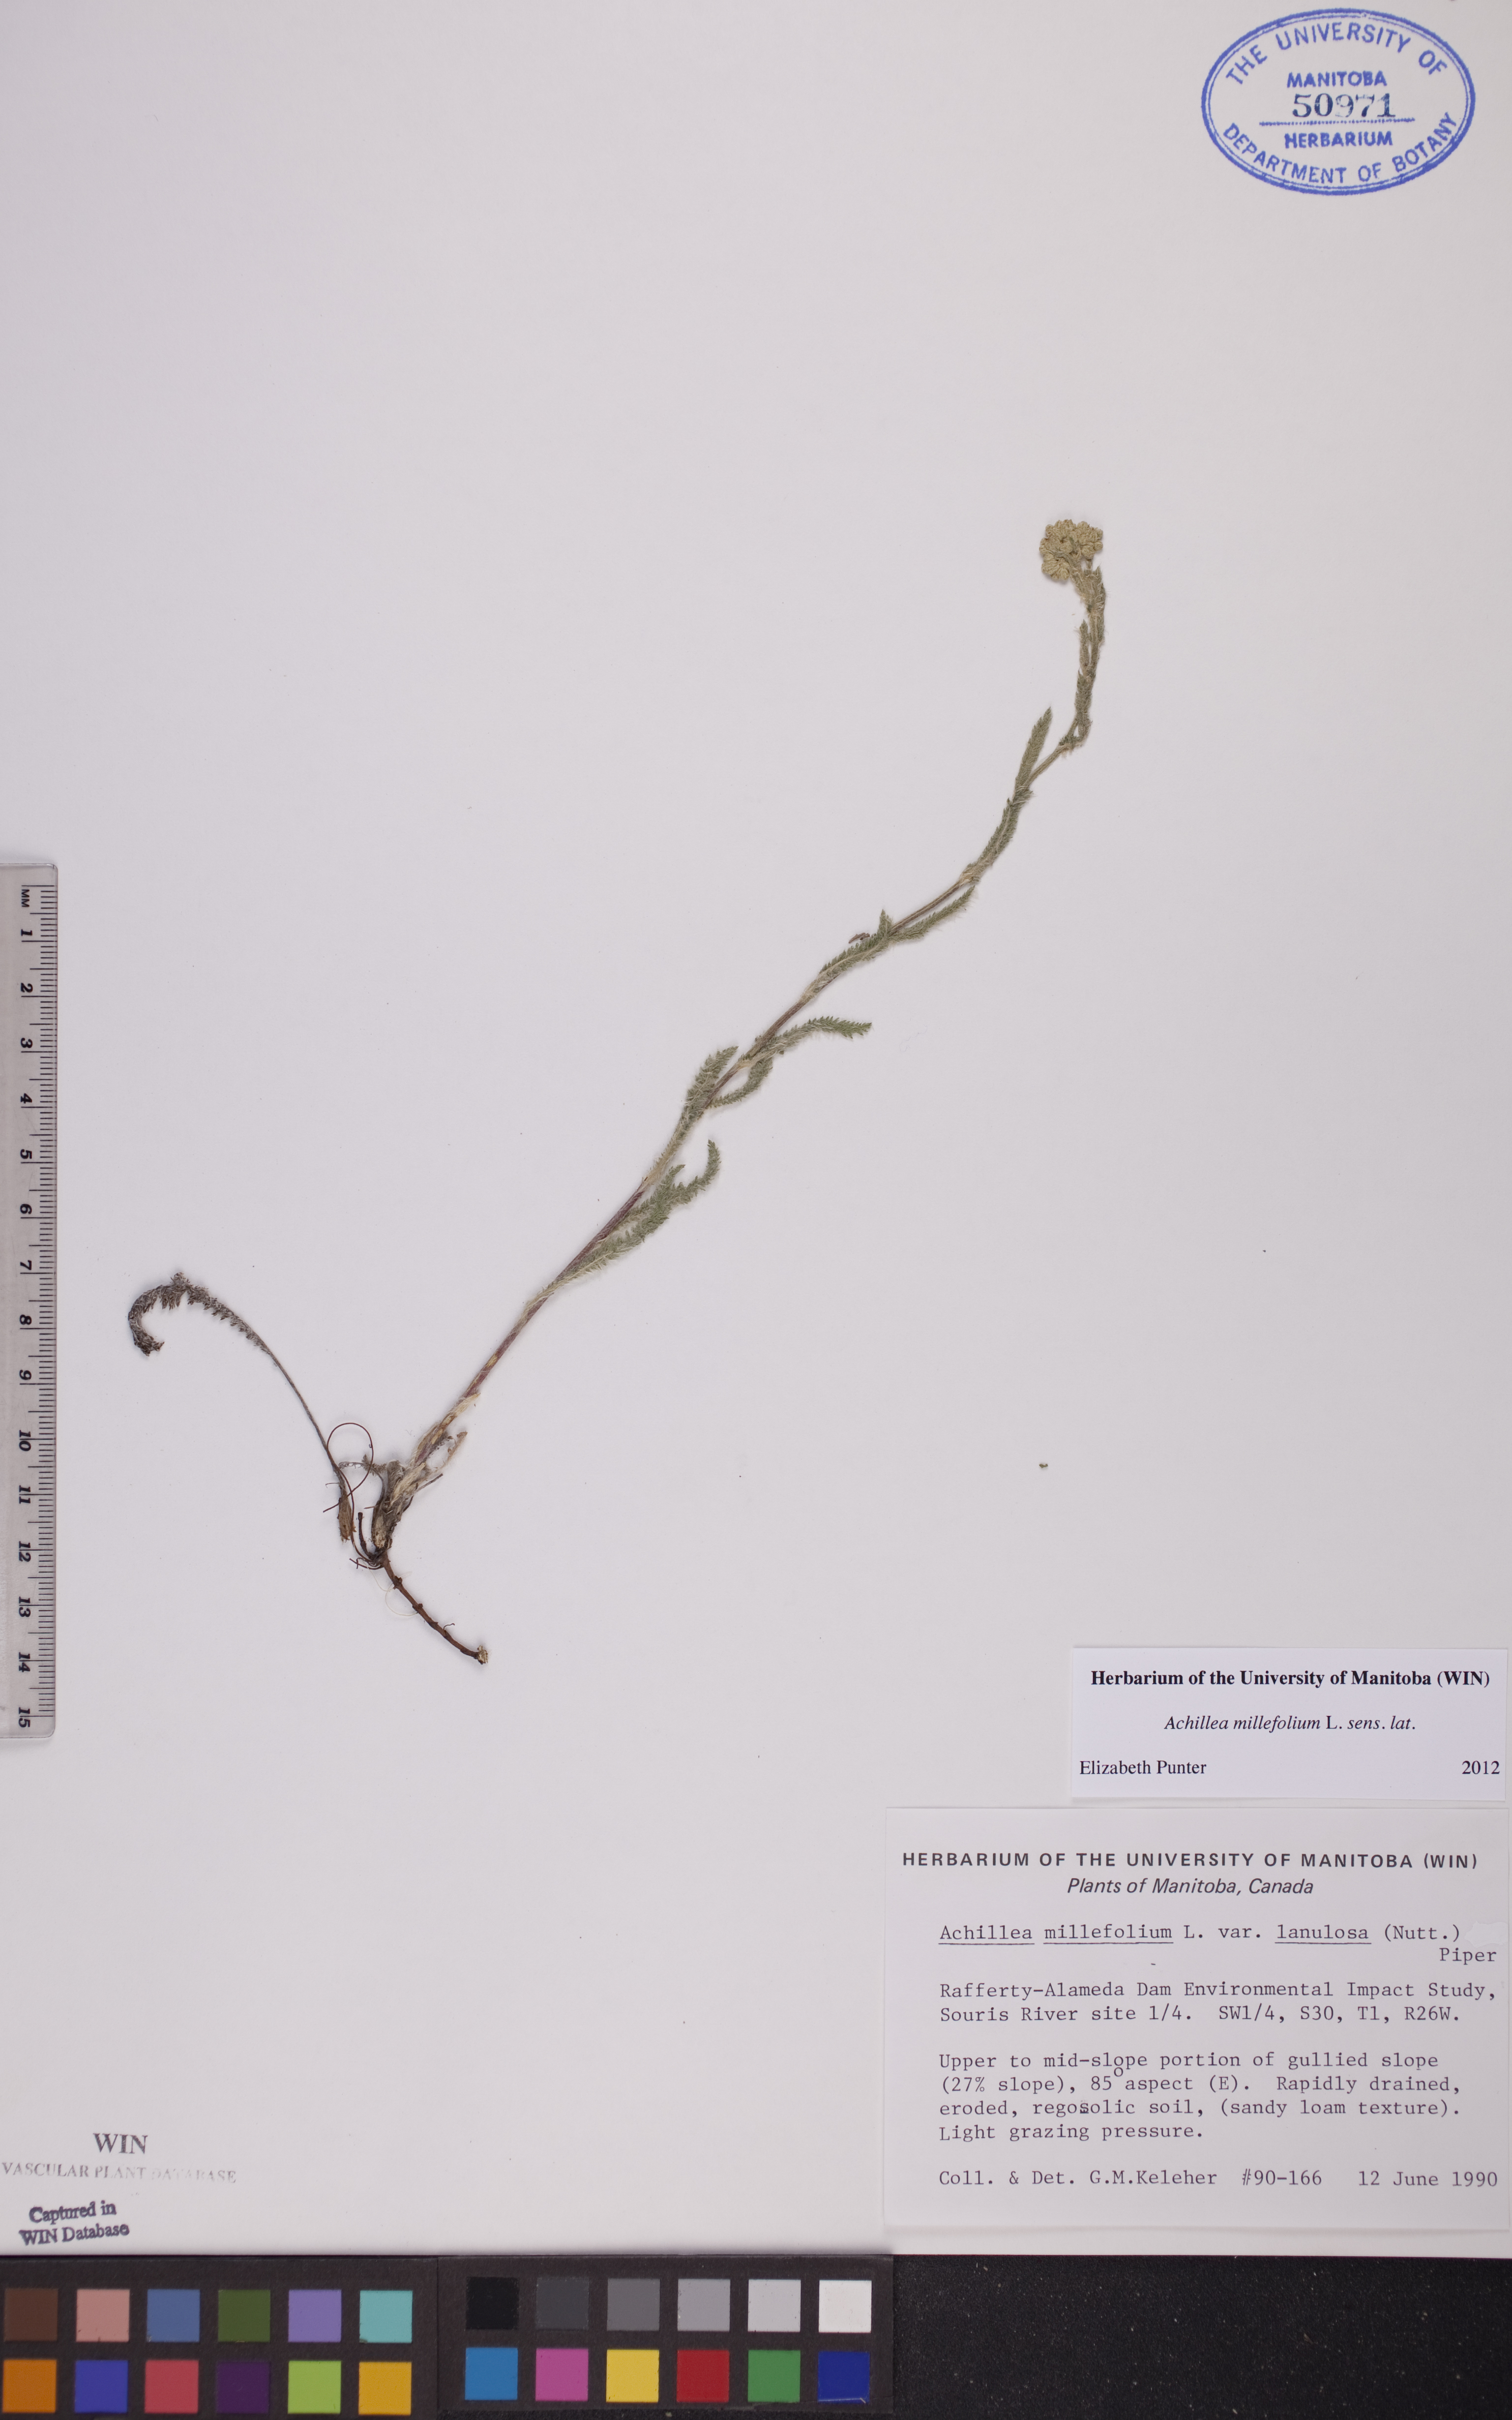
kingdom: Plantae
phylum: Tracheophyta
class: Magnoliopsida
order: Asterales
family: Asteraceae
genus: Achillea
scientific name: Achillea millefolium
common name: Yarrow
